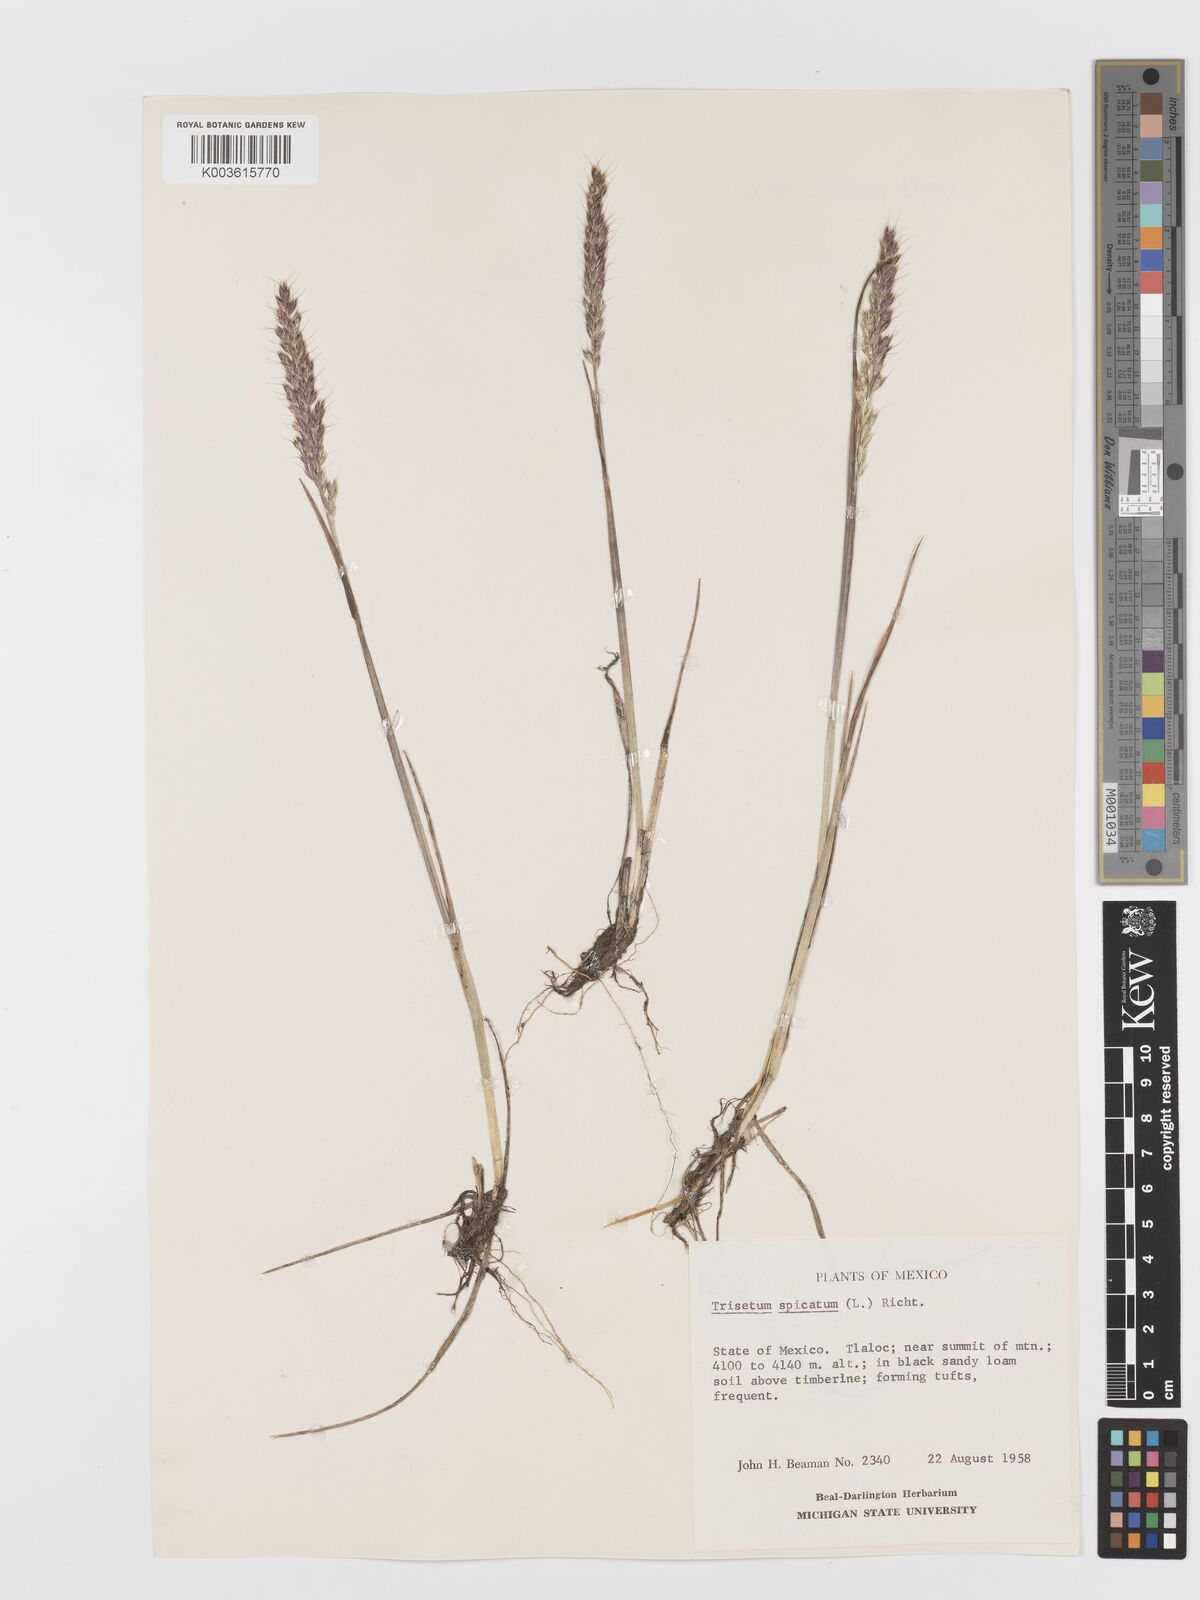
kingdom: Plantae
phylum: Tracheophyta
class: Liliopsida
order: Poales
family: Poaceae
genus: Koeleria
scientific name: Koeleria spicata
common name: Mountain trisetum
